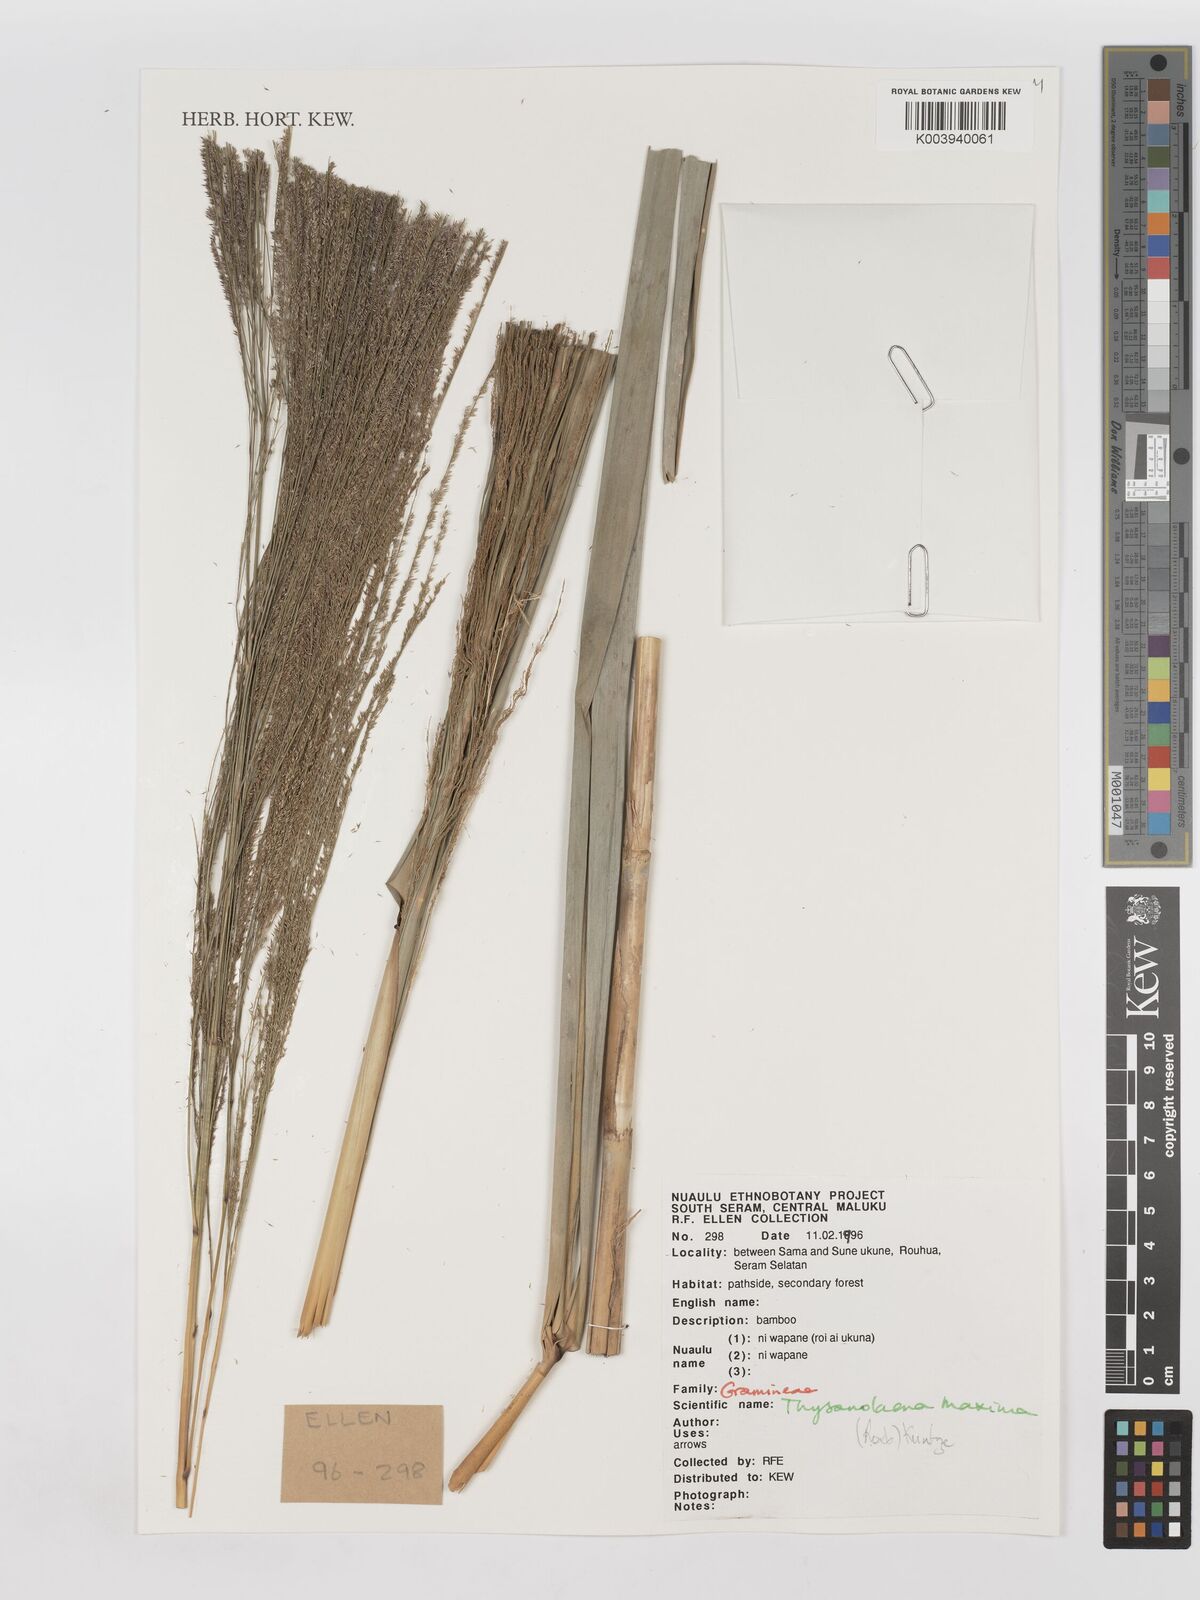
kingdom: Plantae
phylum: Tracheophyta
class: Liliopsida
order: Poales
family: Poaceae
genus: Thysanolaena
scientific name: Thysanolaena latifolia
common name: Tiger grass
